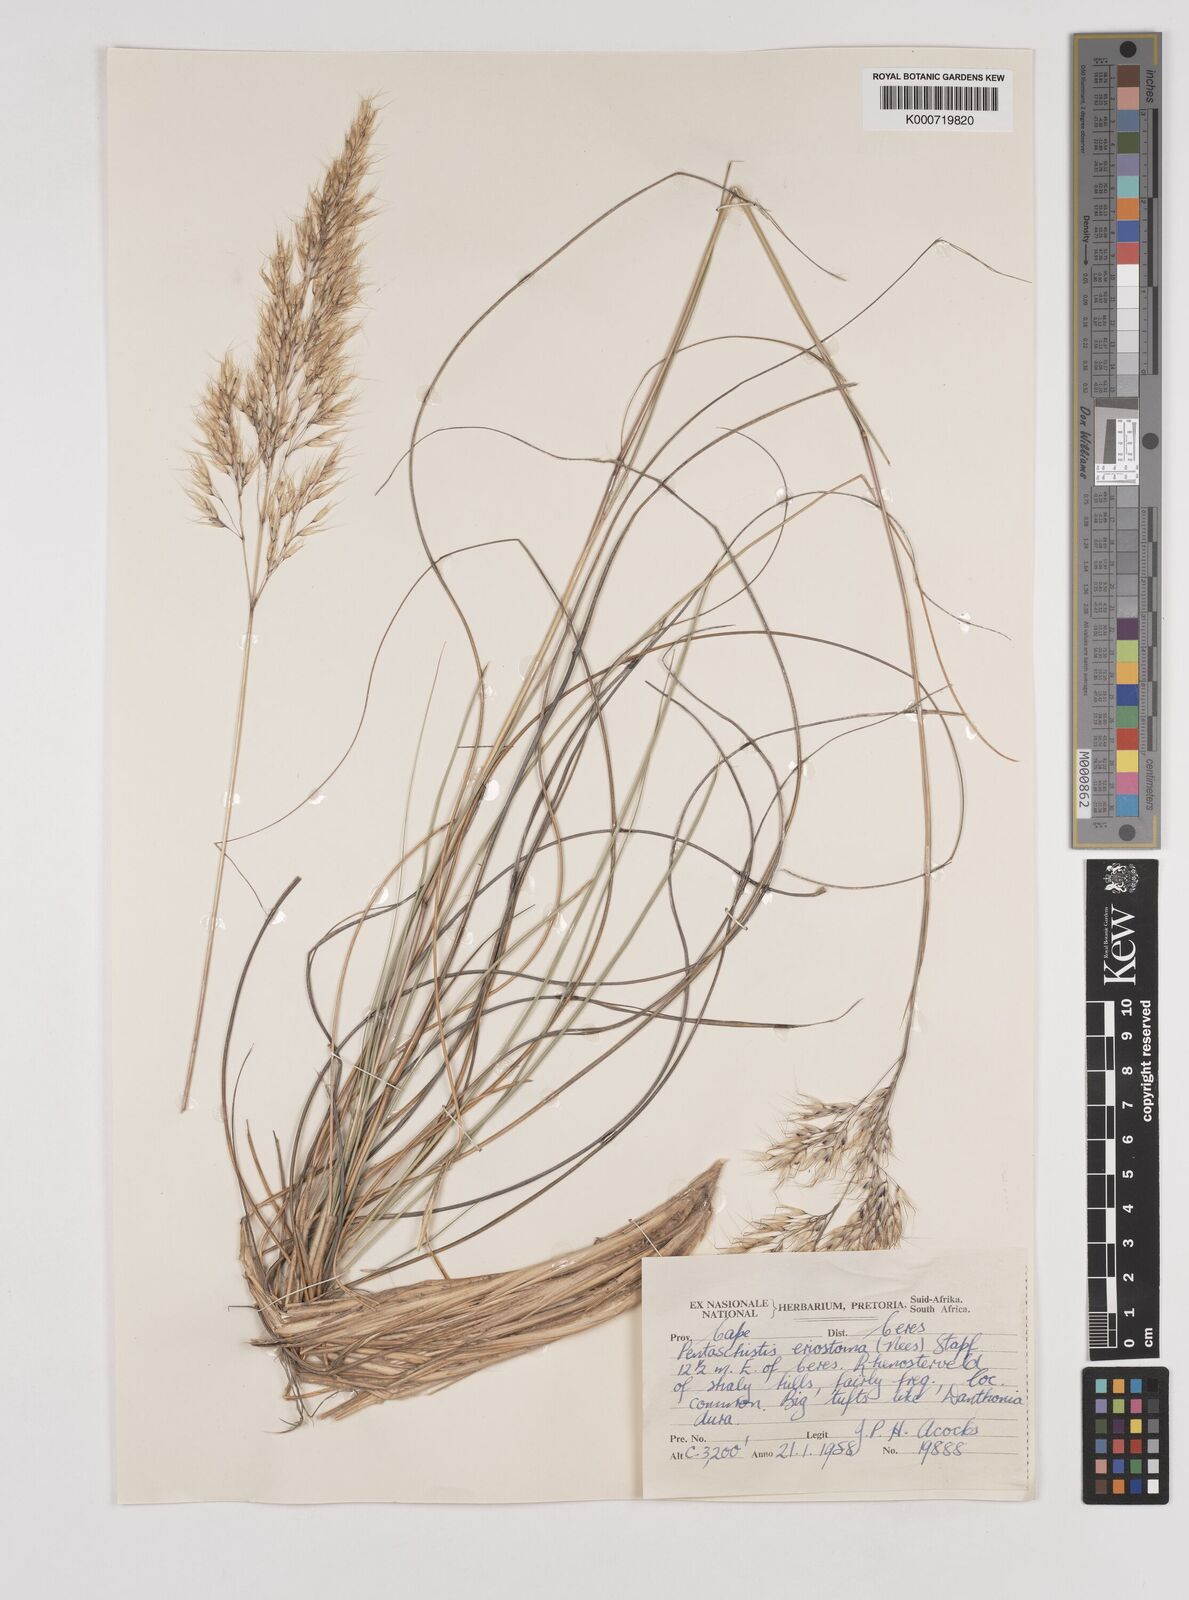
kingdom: Plantae
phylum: Tracheophyta
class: Liliopsida
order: Poales
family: Poaceae
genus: Pentameris
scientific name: Pentameris eriostoma
